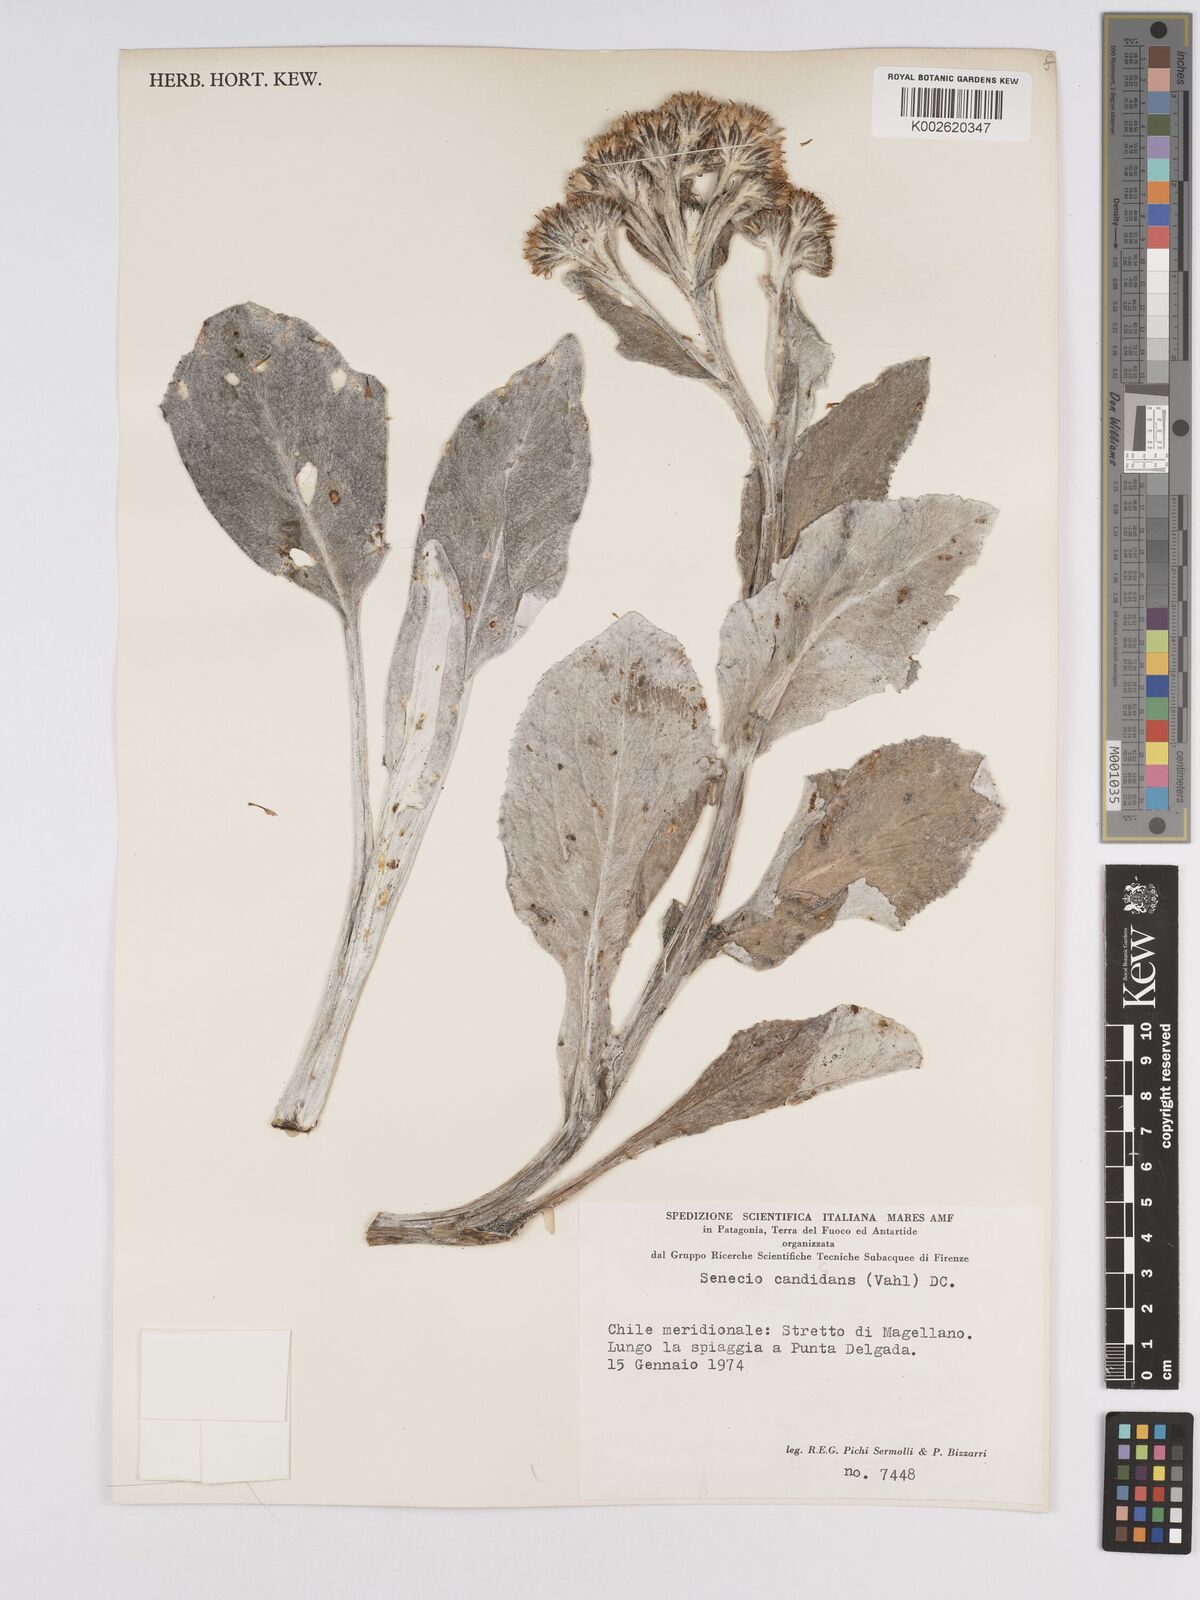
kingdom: Plantae
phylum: Tracheophyta
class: Magnoliopsida
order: Asterales
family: Asteraceae
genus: Senecio
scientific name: Senecio candidans
